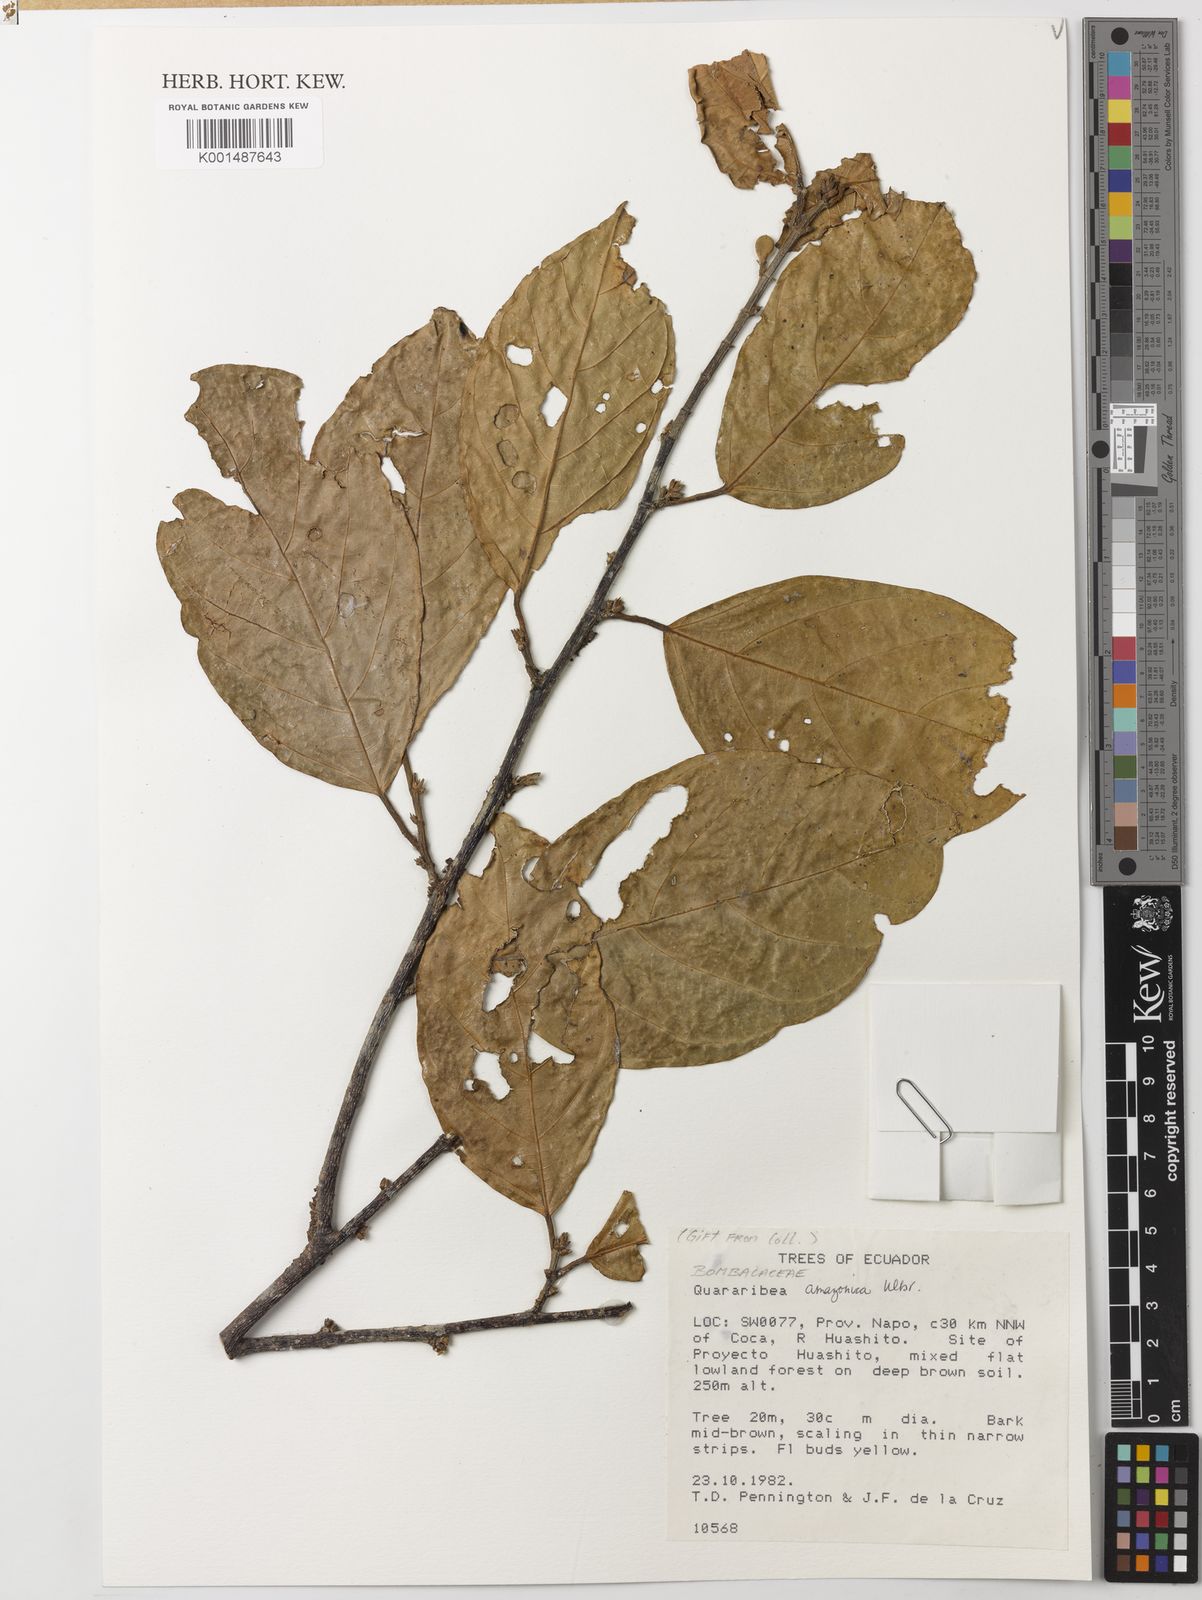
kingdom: Plantae
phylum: Tracheophyta
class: Magnoliopsida
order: Malvales
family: Malvaceae
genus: Quararibea
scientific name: Quararibea amazonica
